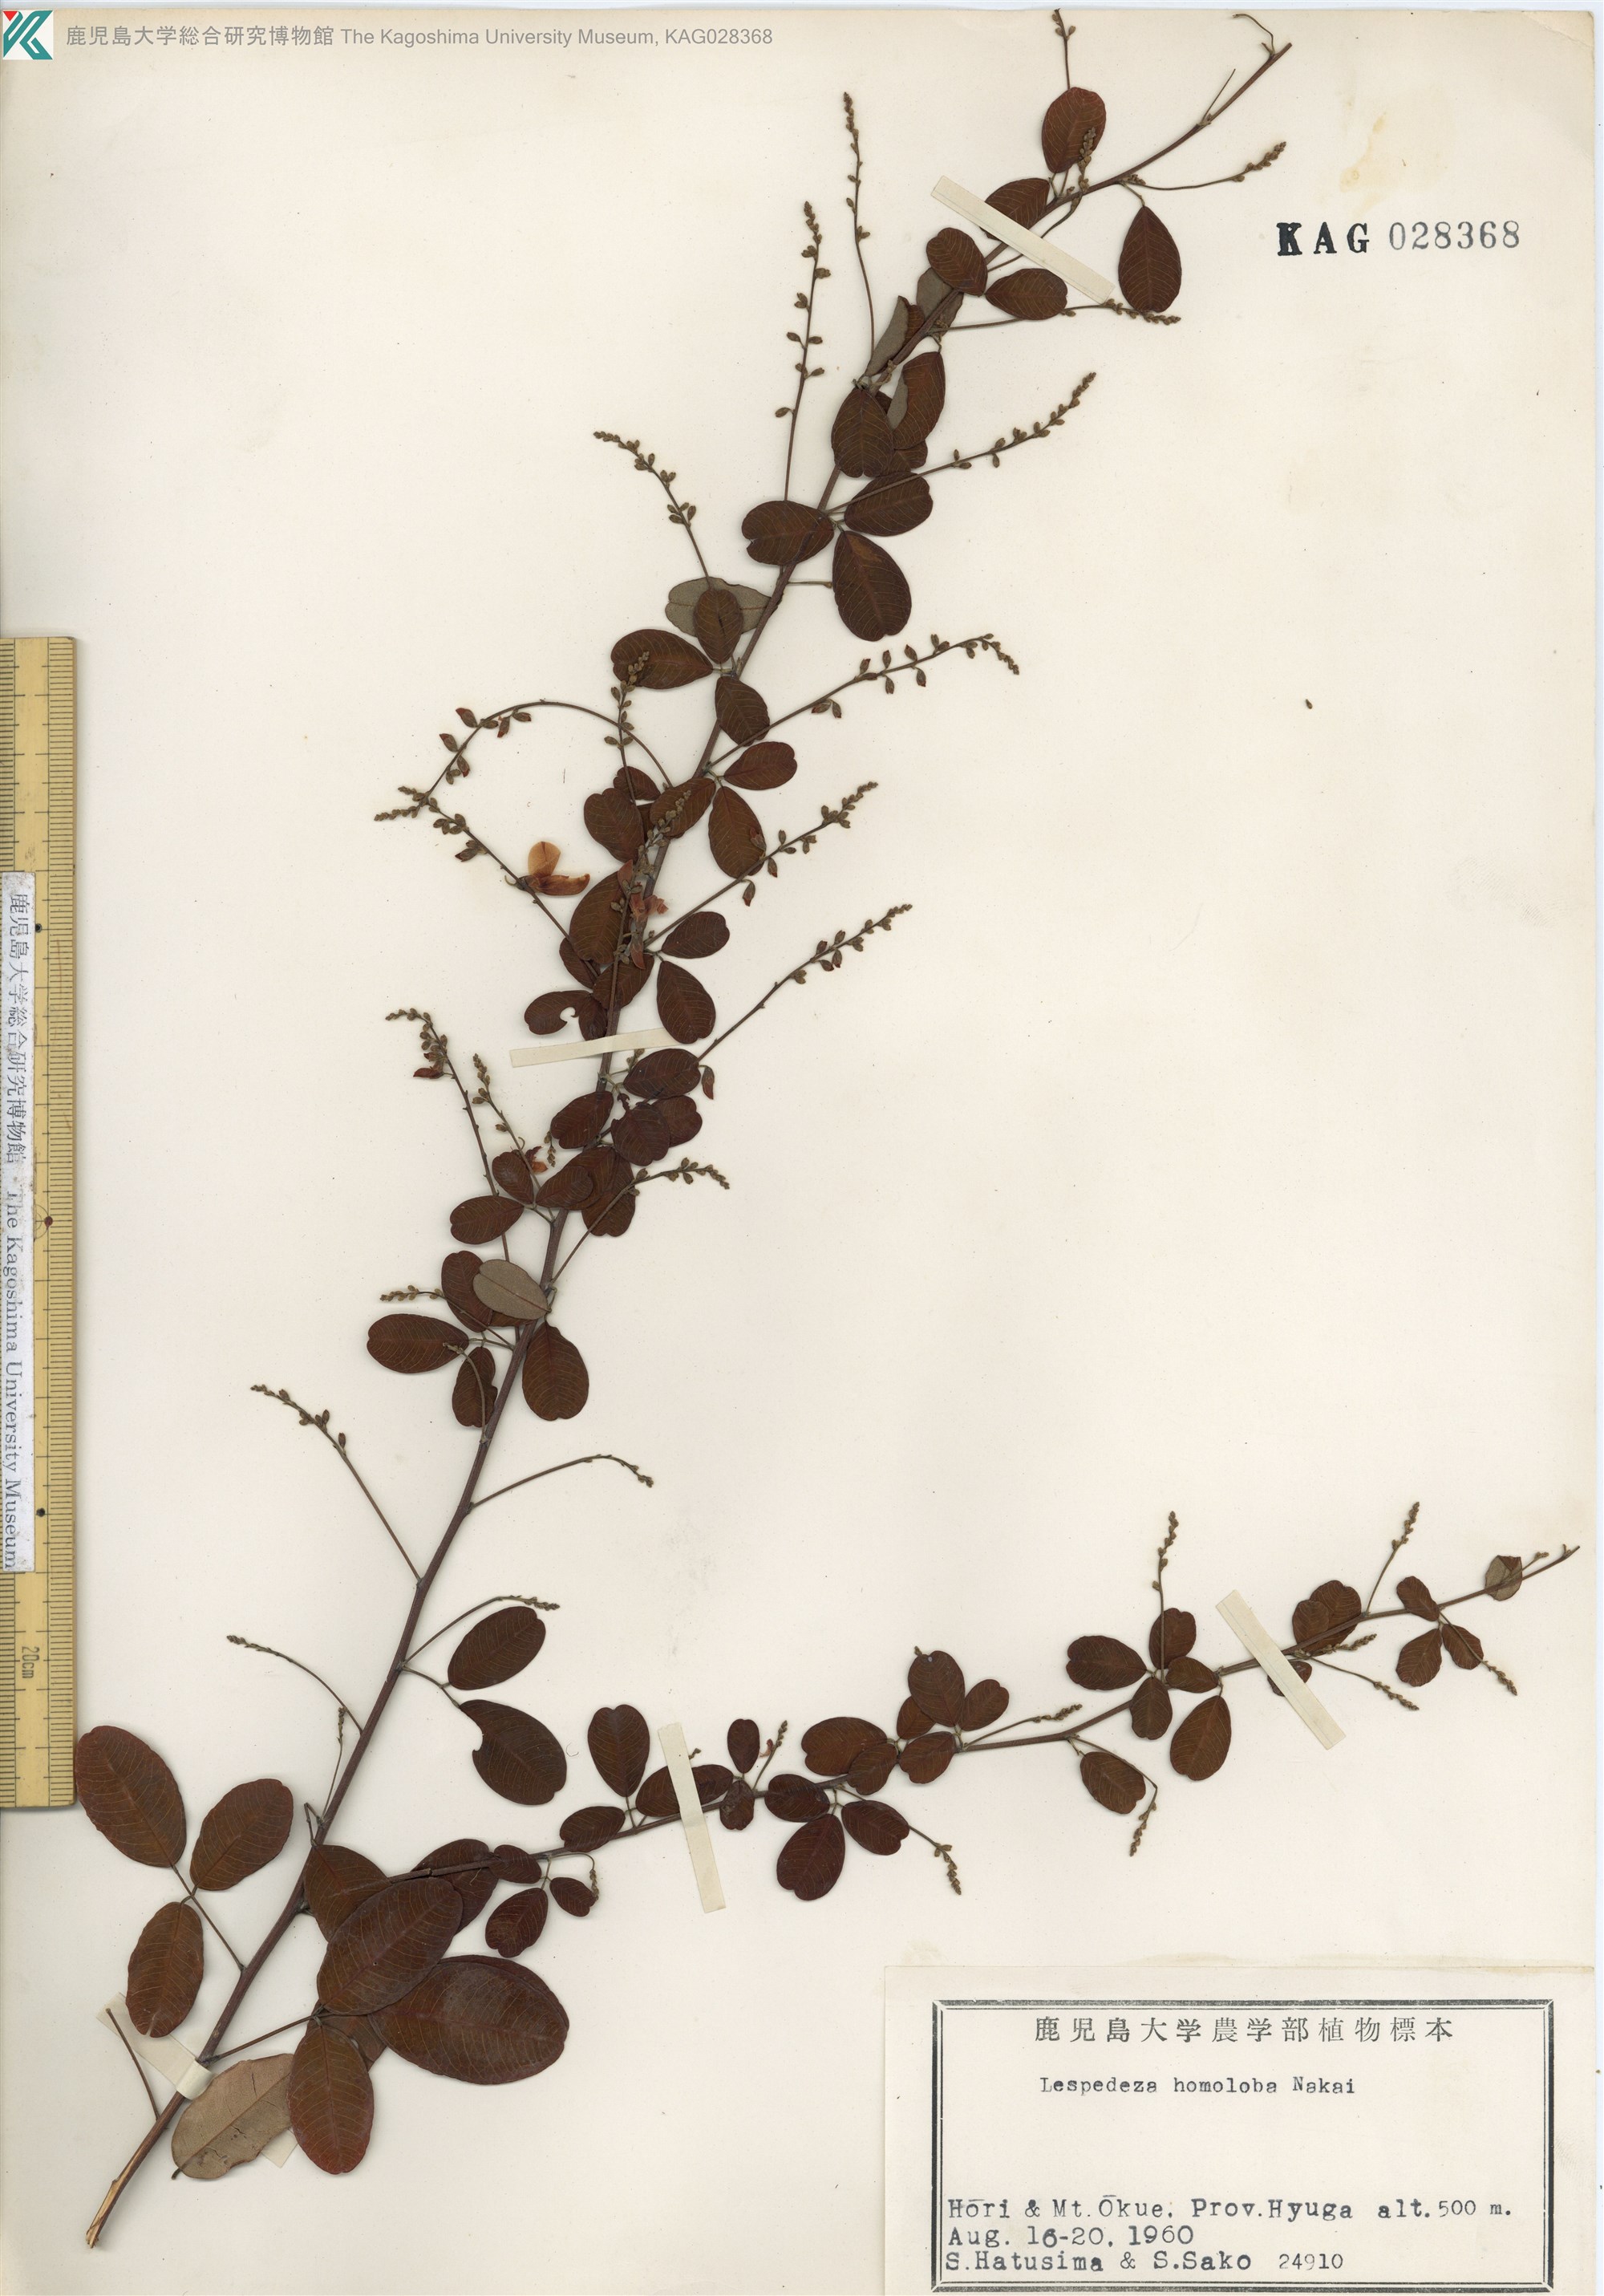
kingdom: Plantae
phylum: Tracheophyta
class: Magnoliopsida
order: Fabales
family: Fabaceae
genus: Lespedeza
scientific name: Lespedeza homoloba
